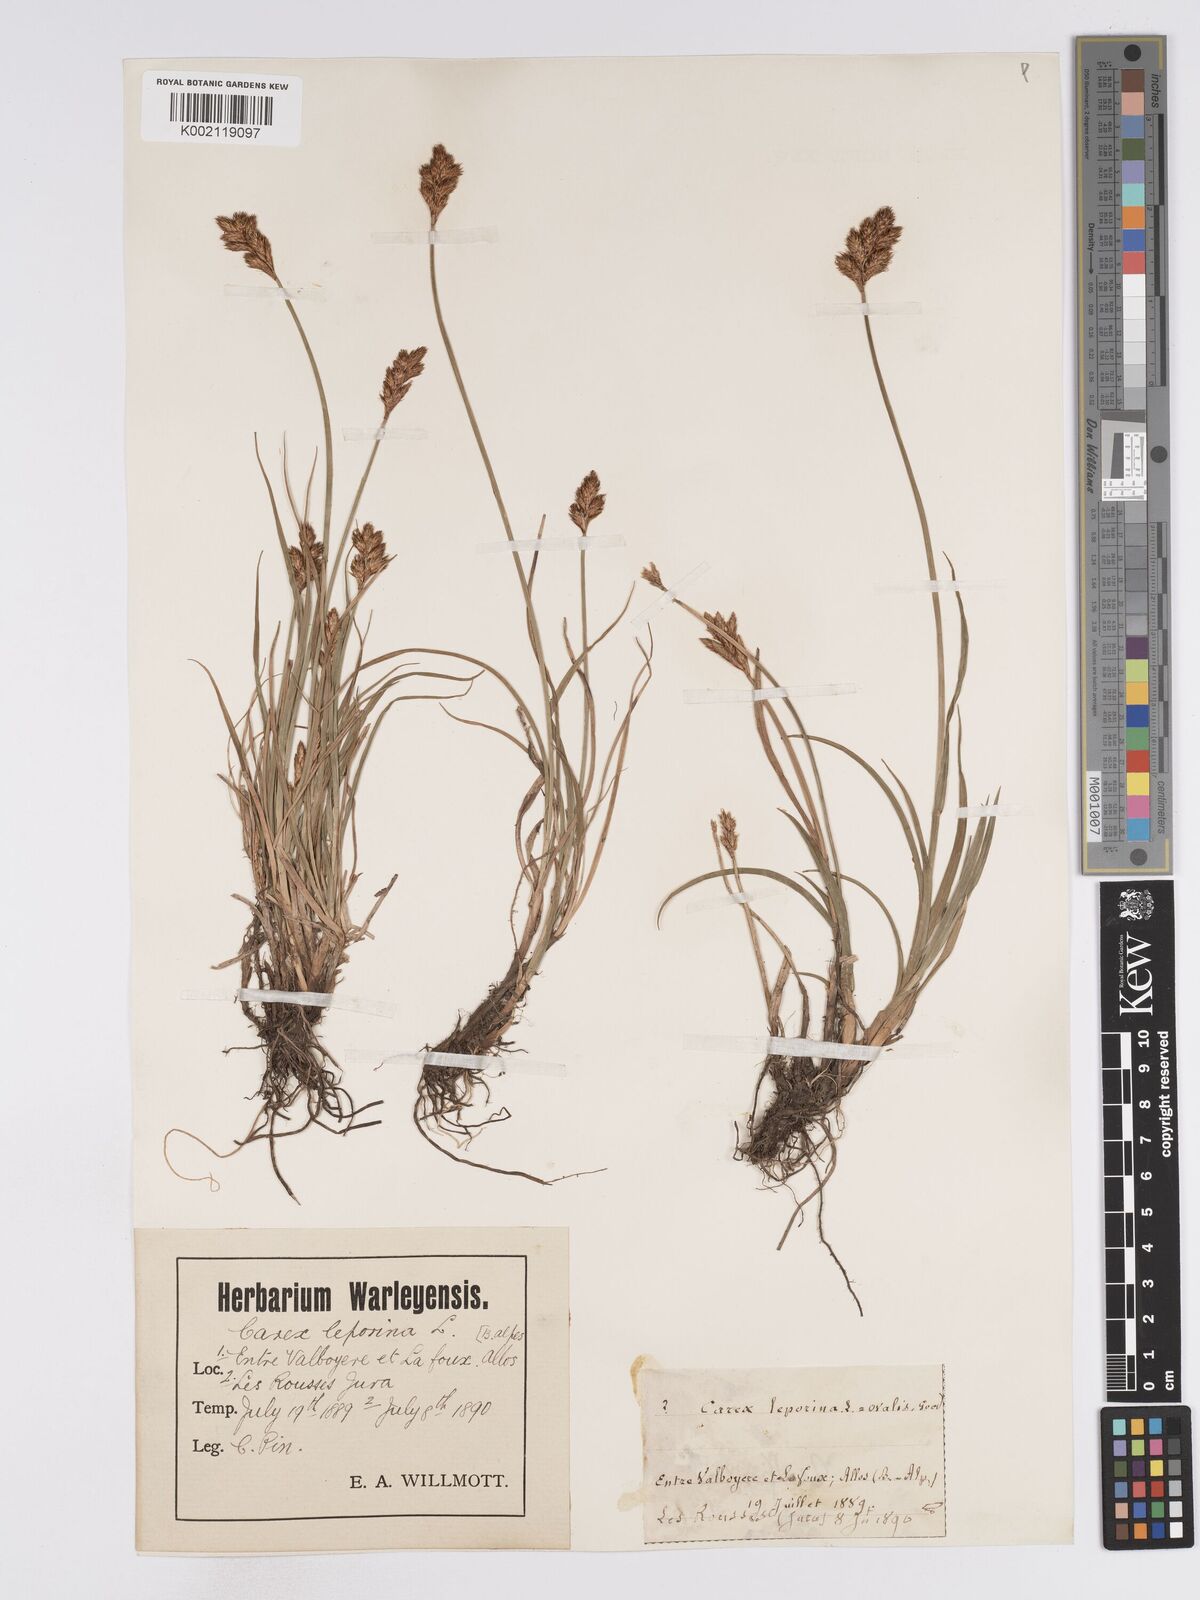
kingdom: Plantae
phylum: Tracheophyta
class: Liliopsida
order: Poales
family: Cyperaceae
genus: Carex
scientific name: Carex leporina
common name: Oval sedge
